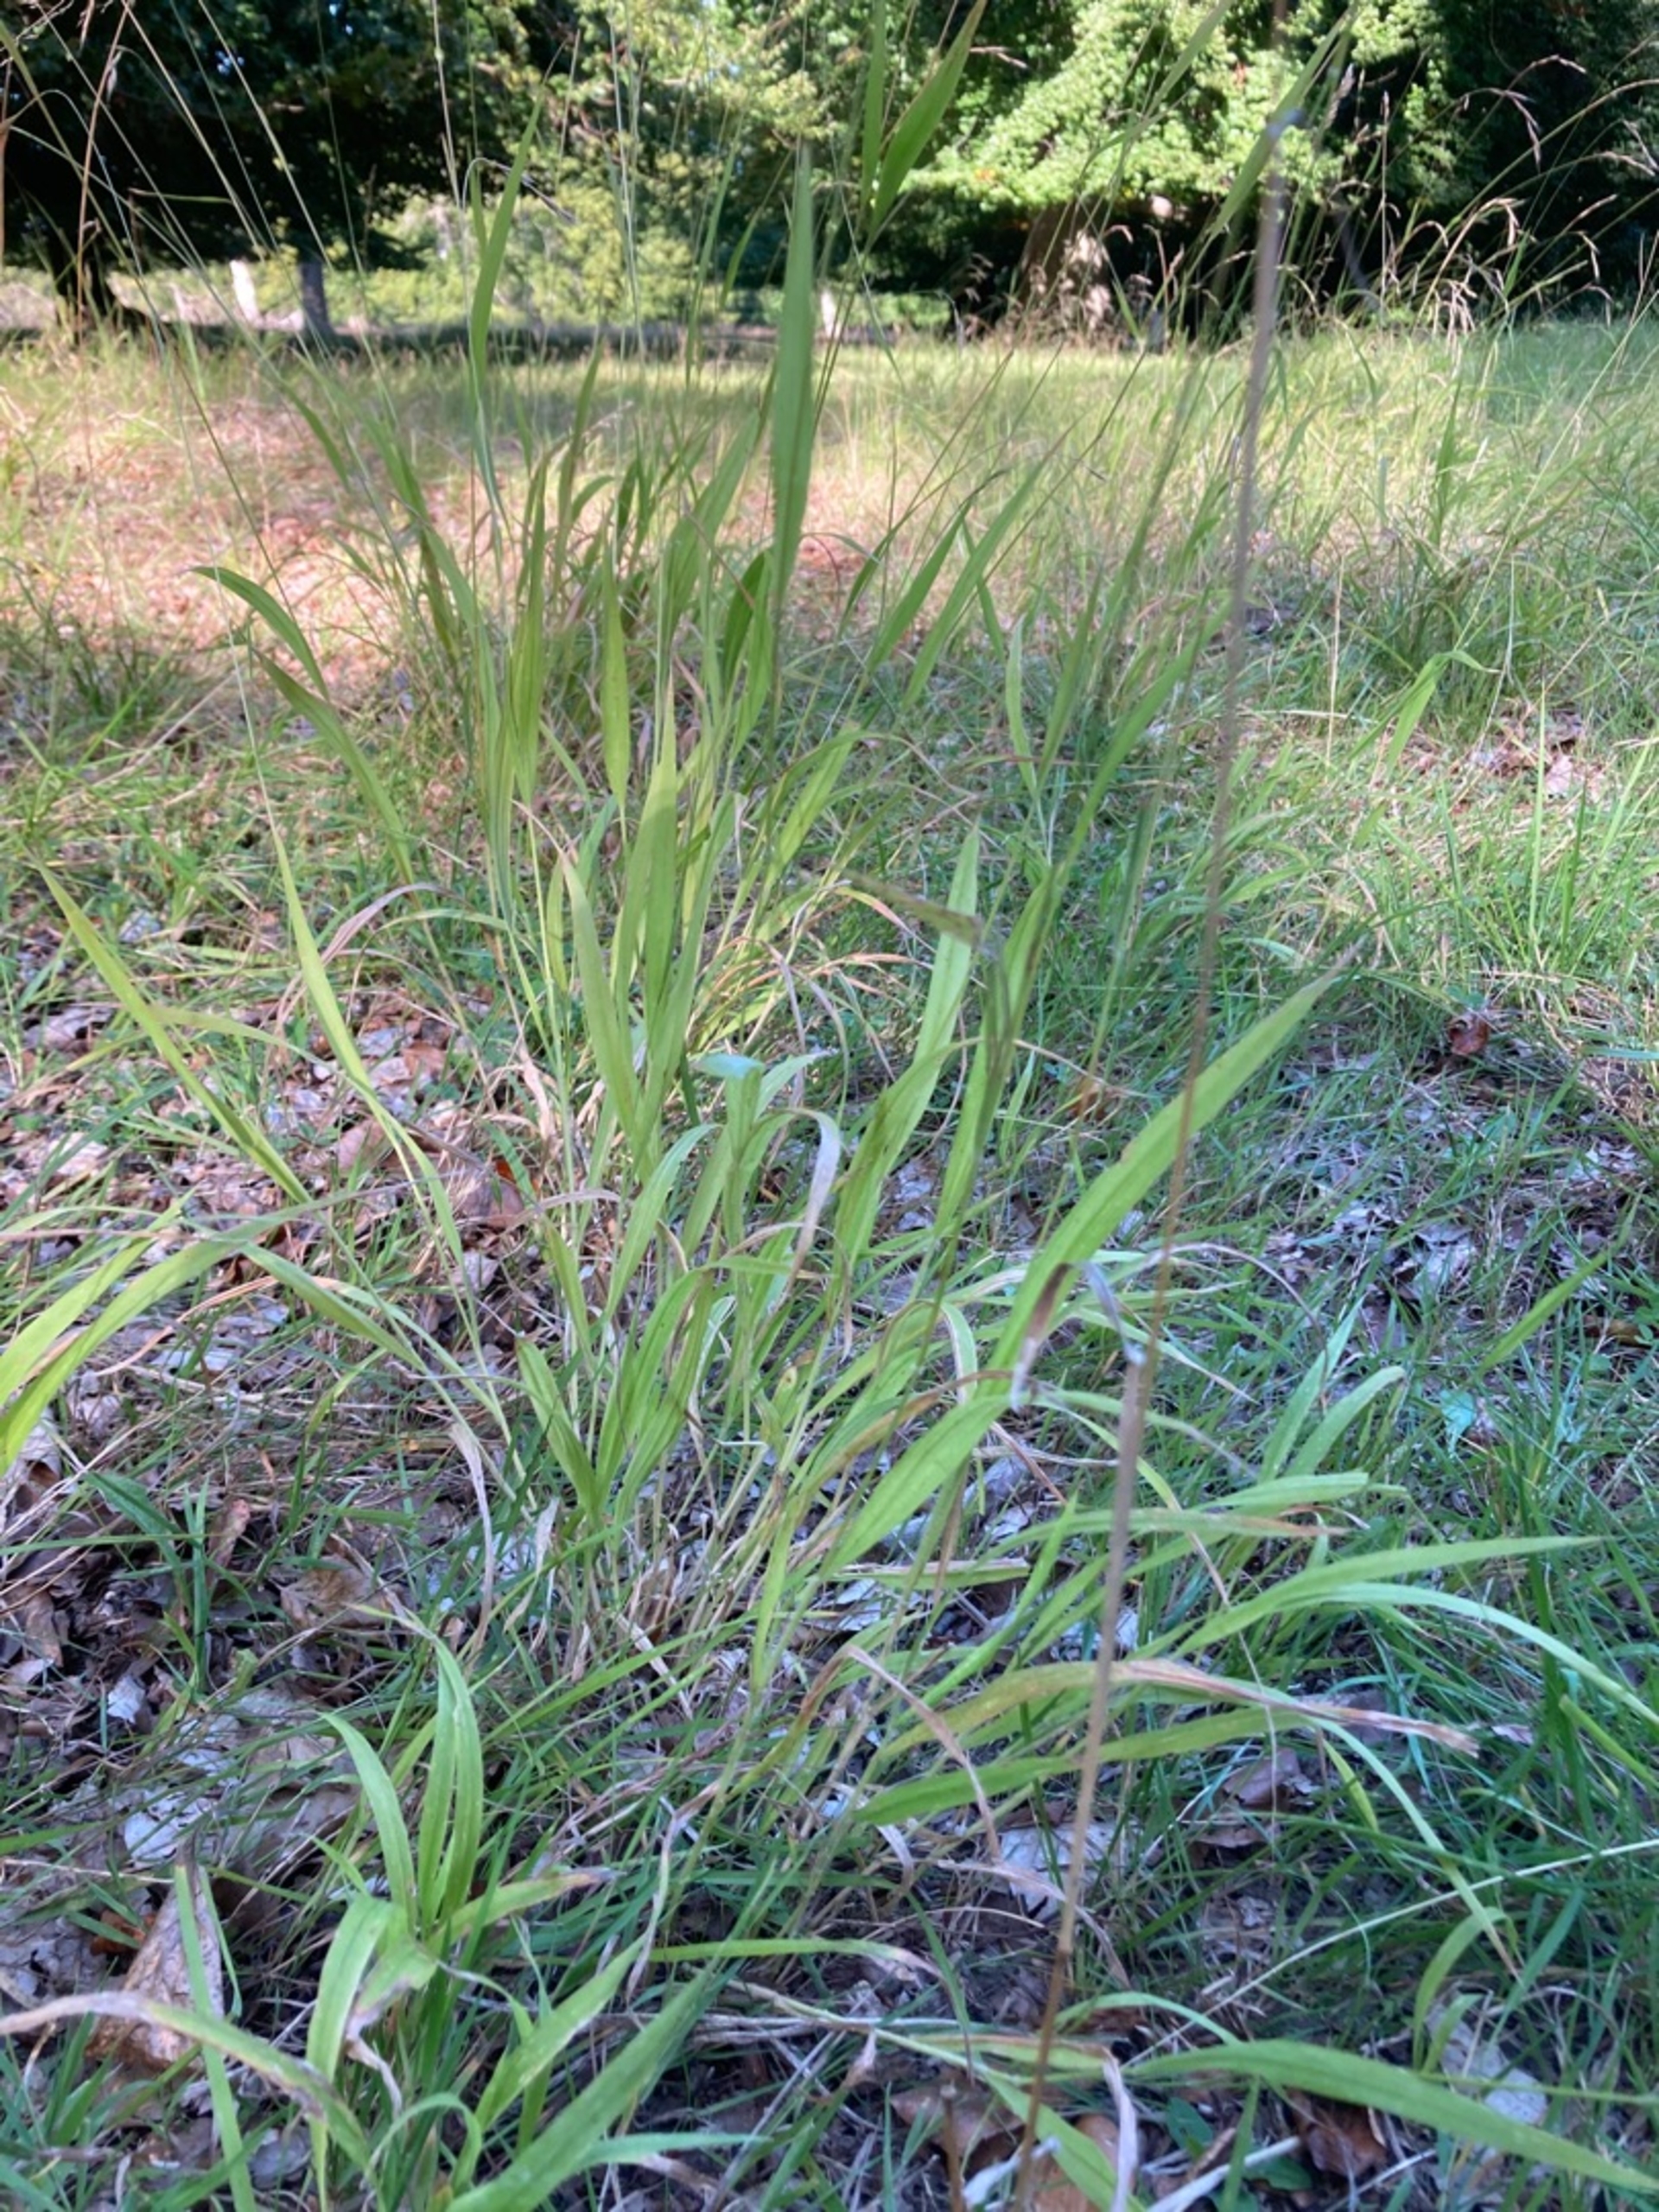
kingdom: Plantae
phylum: Tracheophyta
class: Liliopsida
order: Poales
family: Poaceae
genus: Brachypodium
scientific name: Brachypodium sylvaticum
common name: Skov-stilkaks
